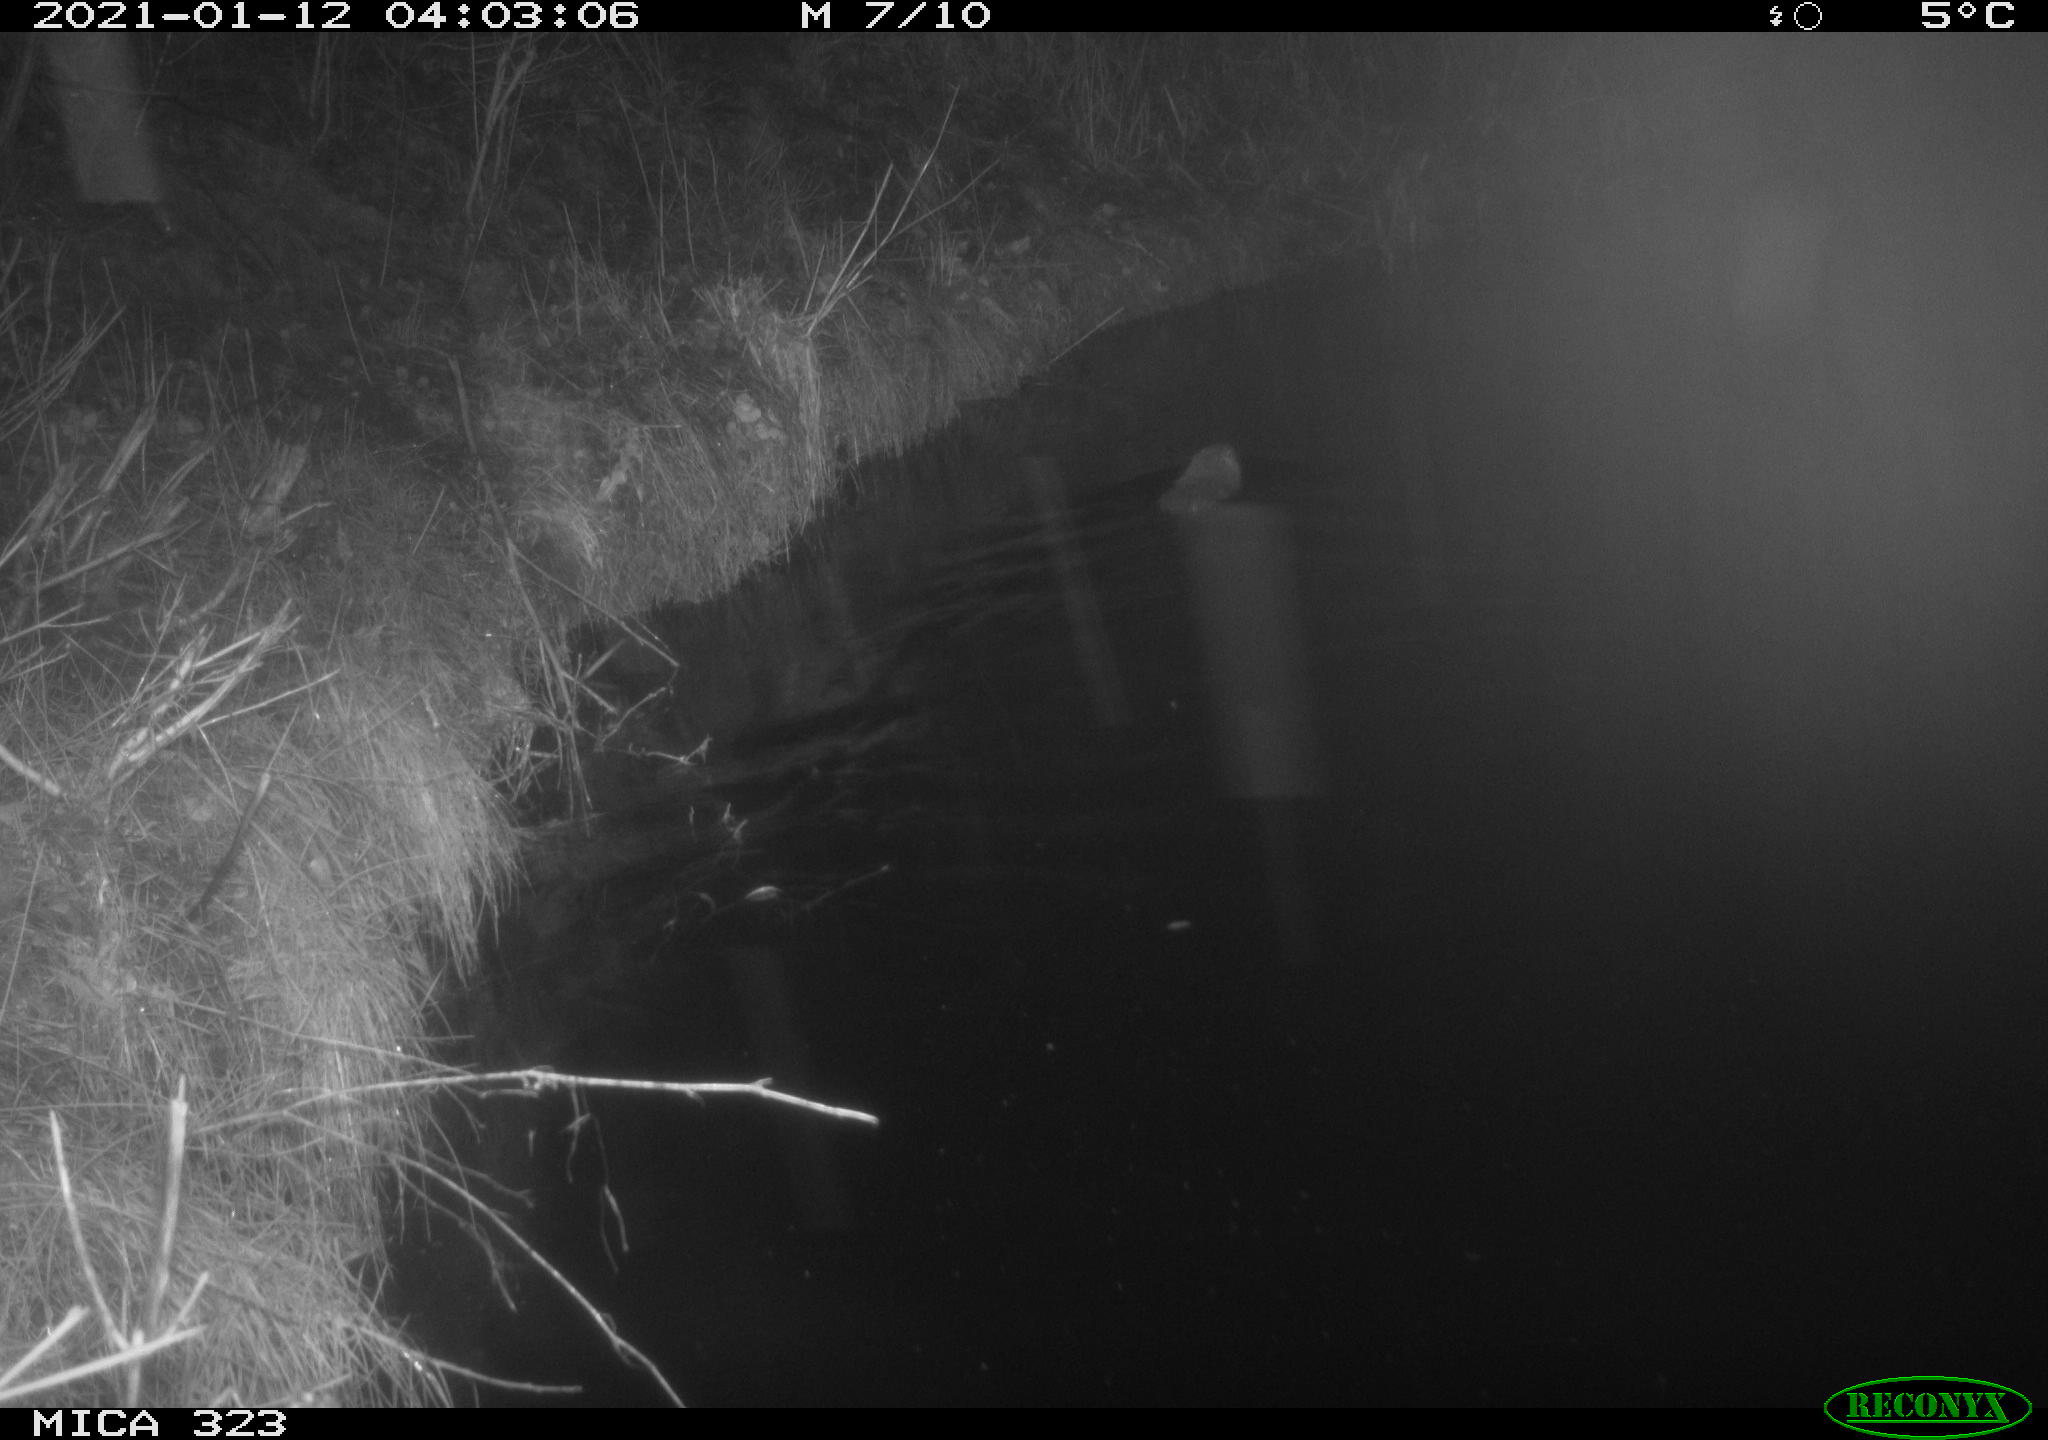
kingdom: Animalia
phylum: Chordata
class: Mammalia
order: Rodentia
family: Myocastoridae
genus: Myocastor
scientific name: Myocastor coypus
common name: Coypu
